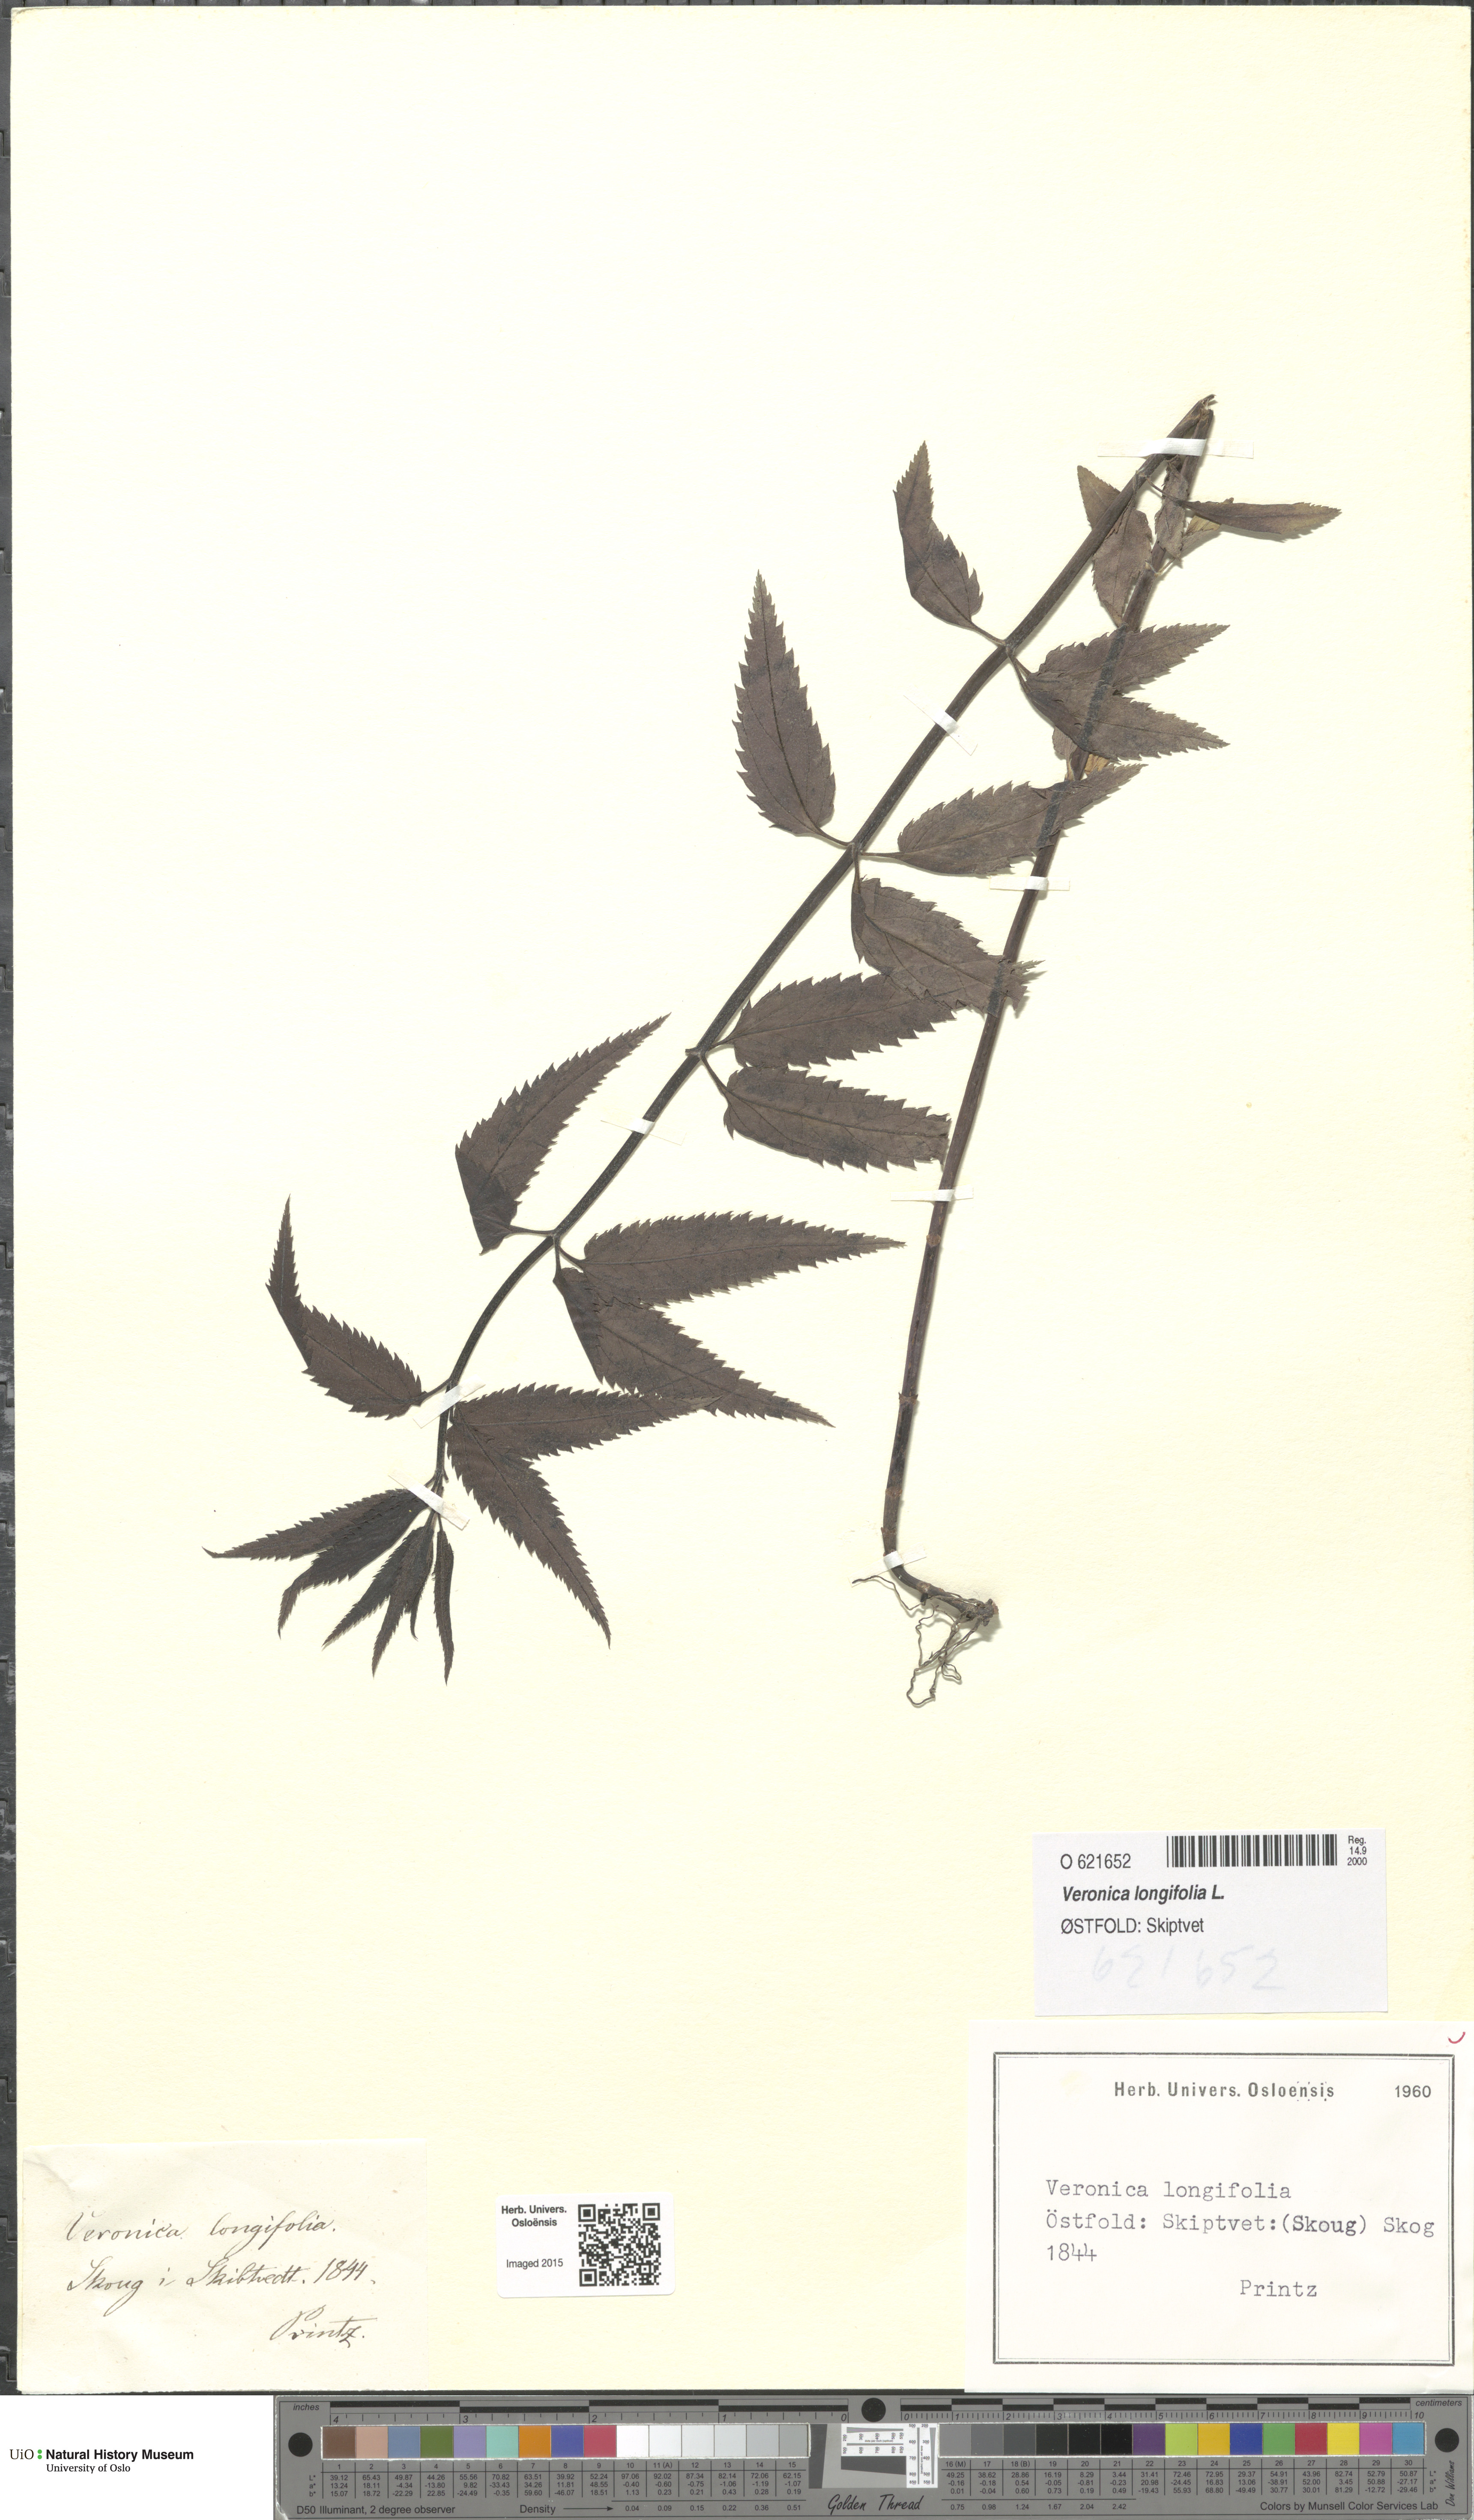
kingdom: Plantae
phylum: Tracheophyta
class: Magnoliopsida
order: Lamiales
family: Plantaginaceae
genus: Veronica
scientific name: Veronica longifolia
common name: Garden speedwell
